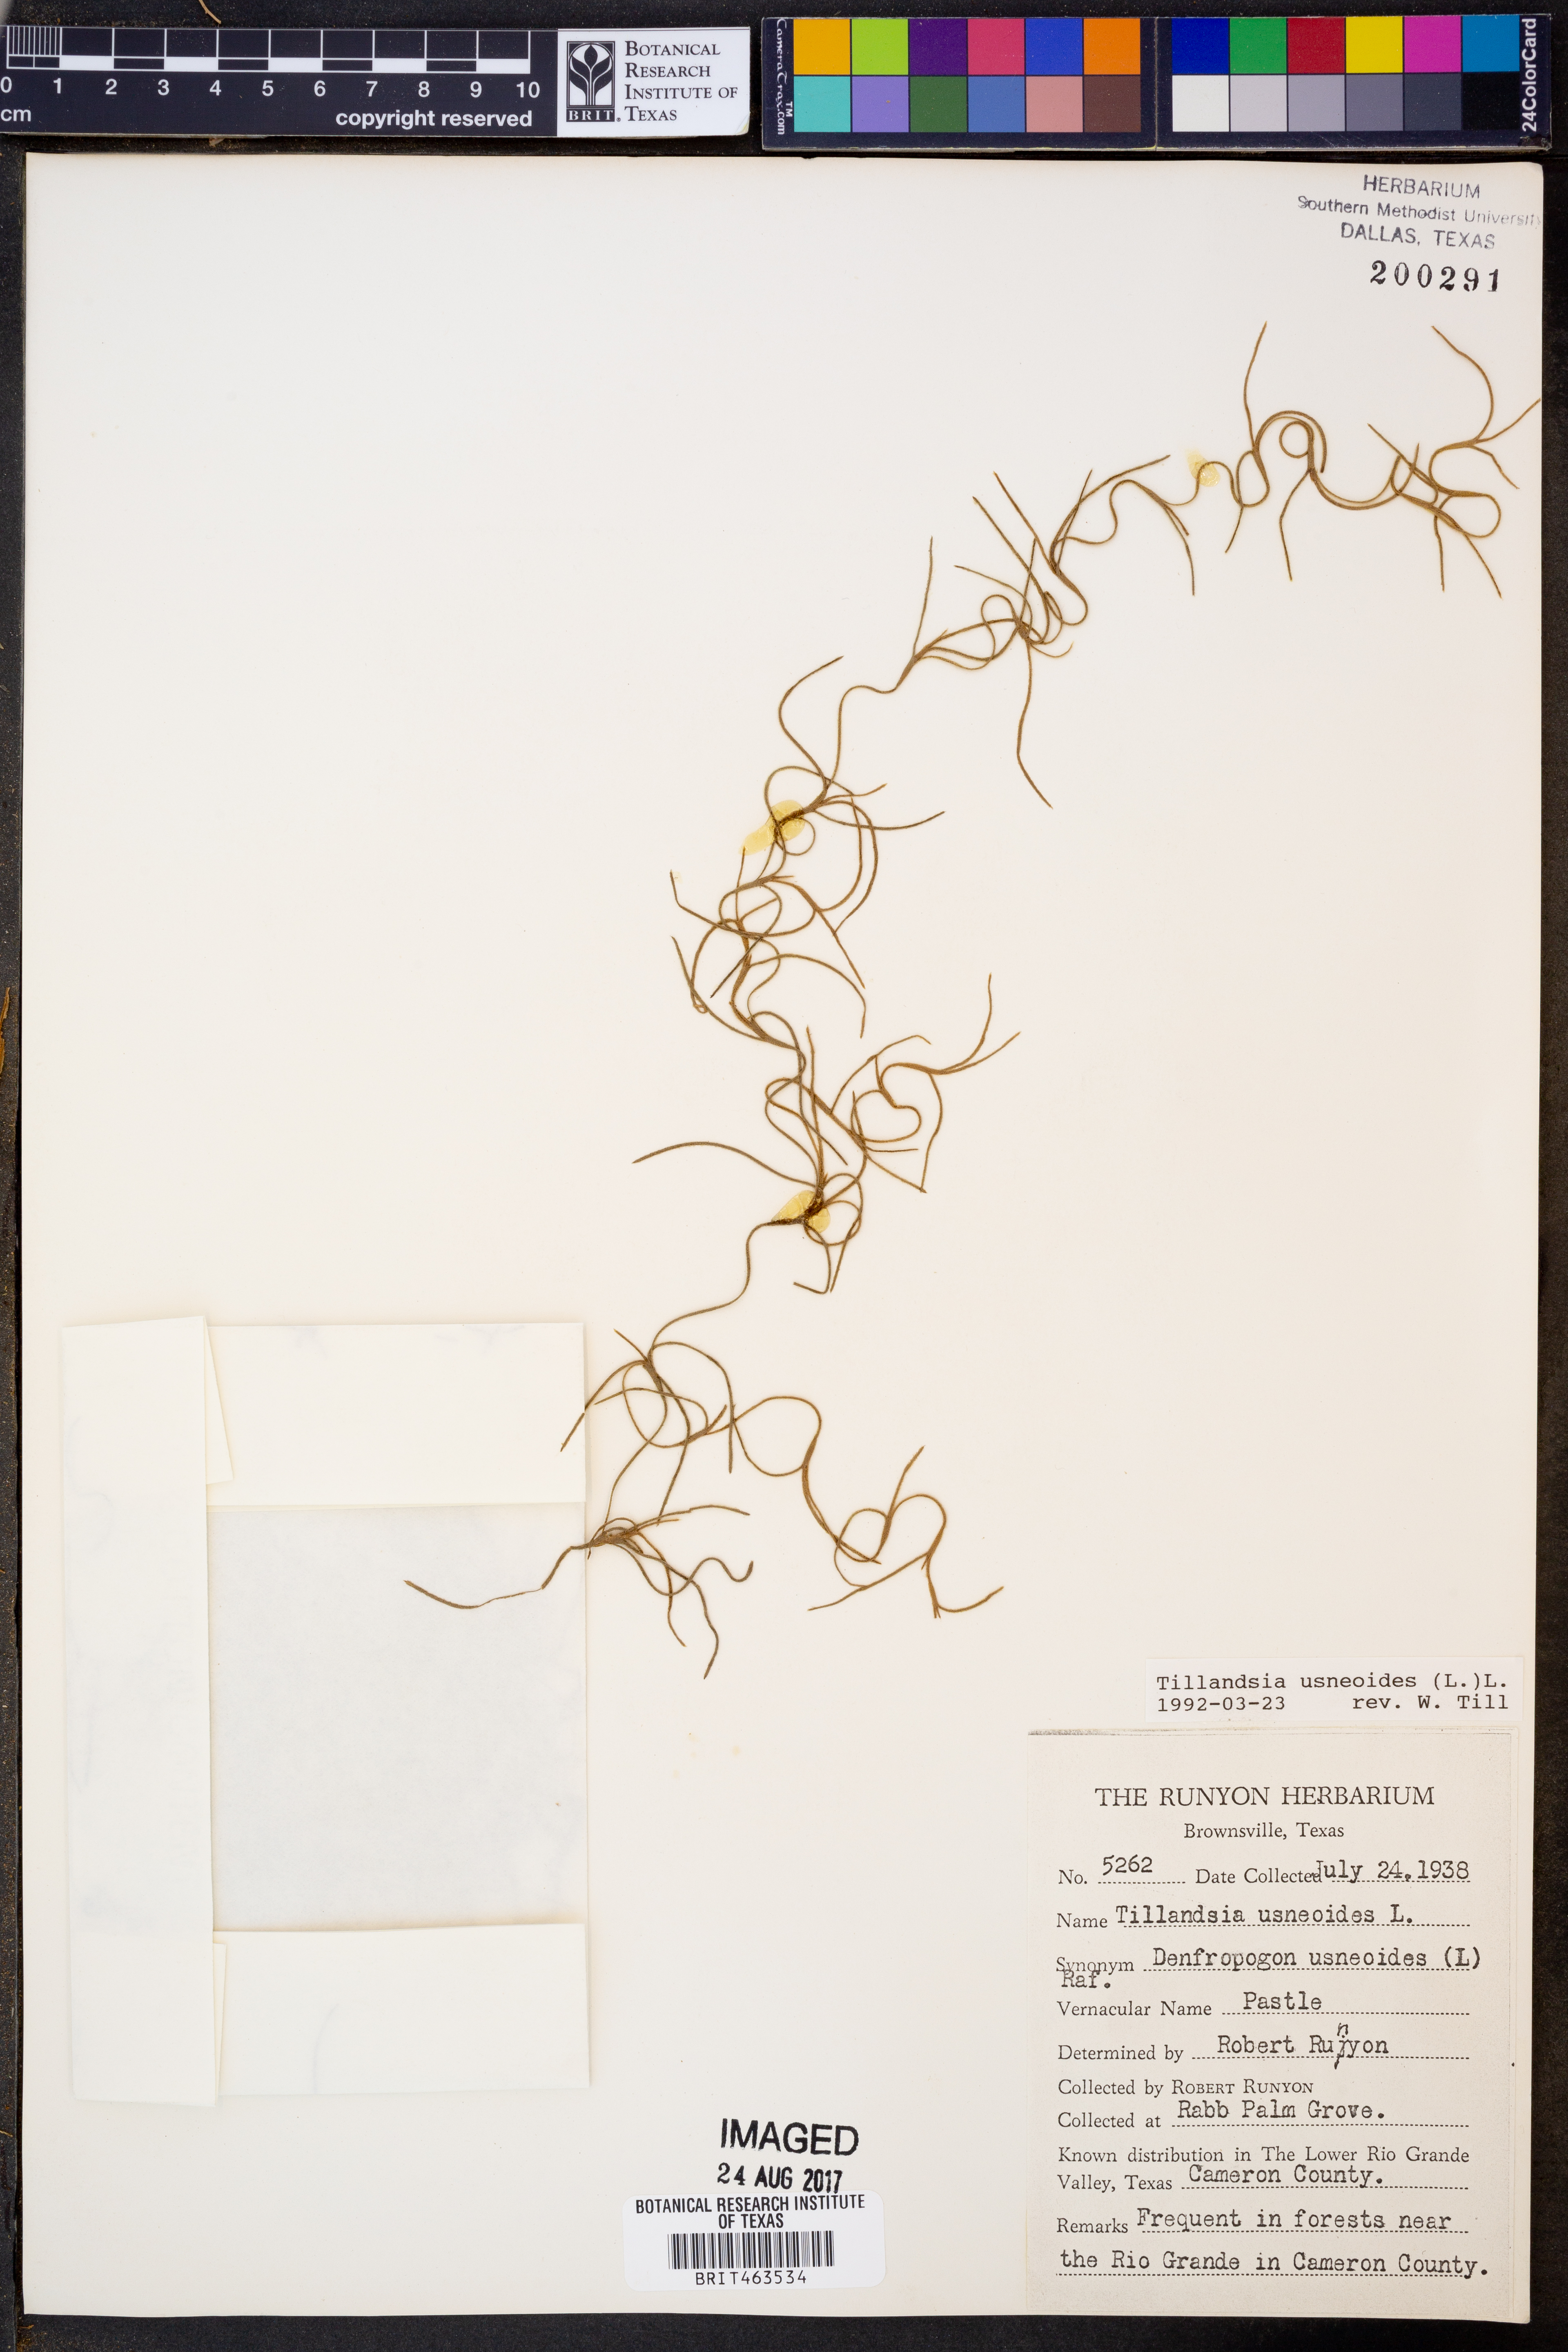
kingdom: Plantae
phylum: Tracheophyta
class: Liliopsida
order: Poales
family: Bromeliaceae
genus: Tillandsia
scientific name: Tillandsia usneoides
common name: Spanish moss
